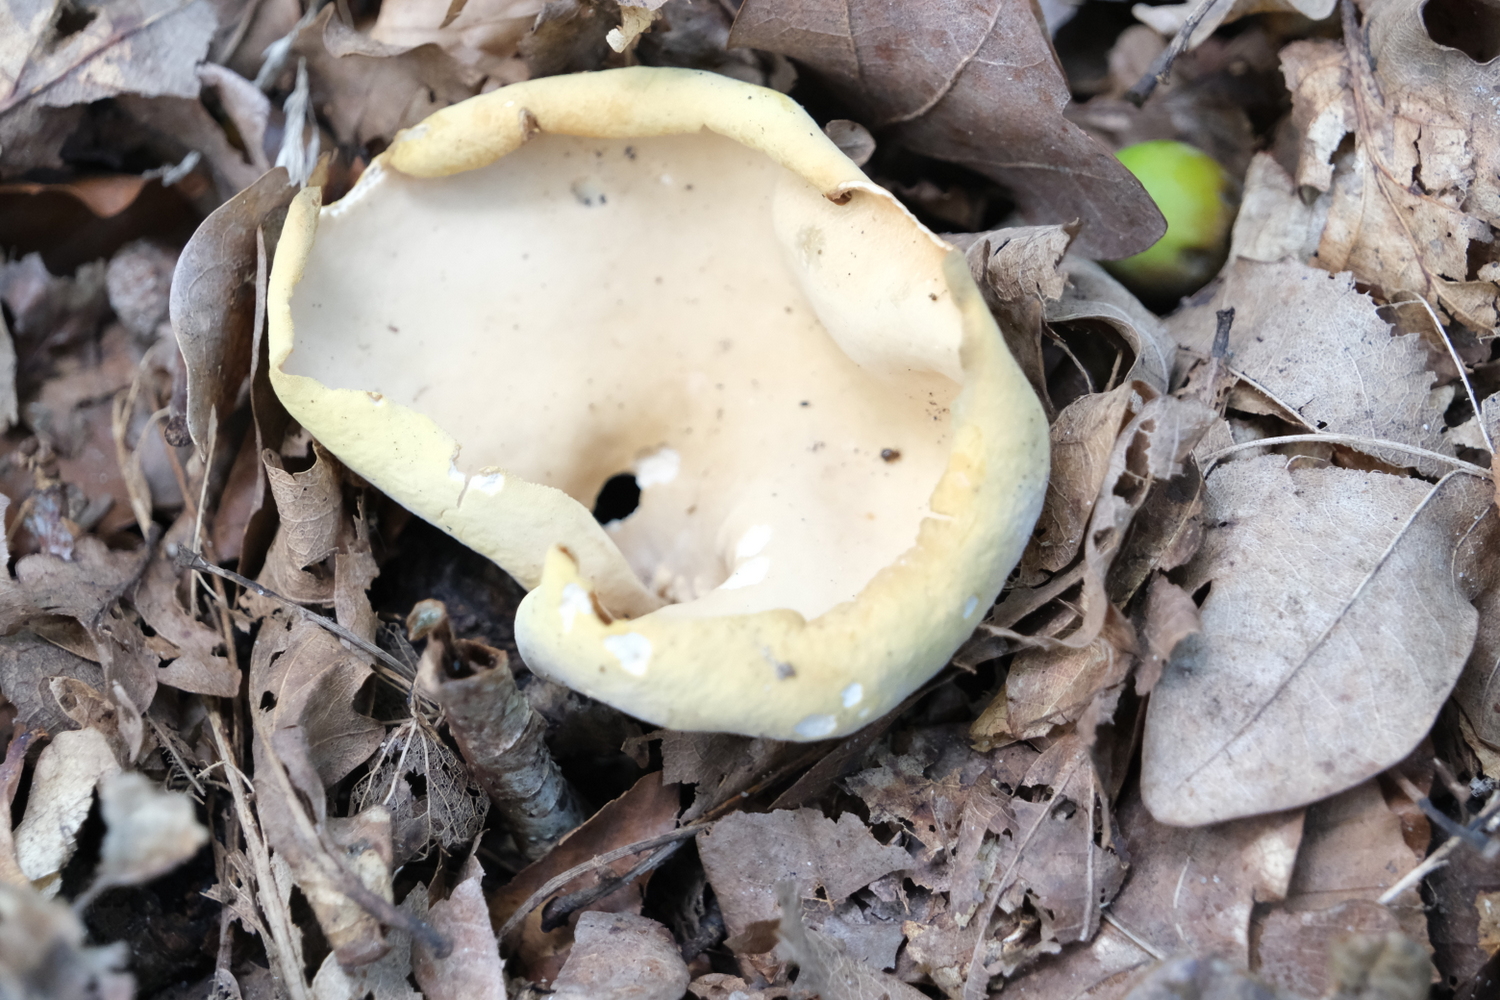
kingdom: Fungi
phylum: Ascomycota
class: Pezizomycetes
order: Pezizales
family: Otideaceae
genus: Otidea
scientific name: Otidea onotica
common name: æsel-ørebæger
